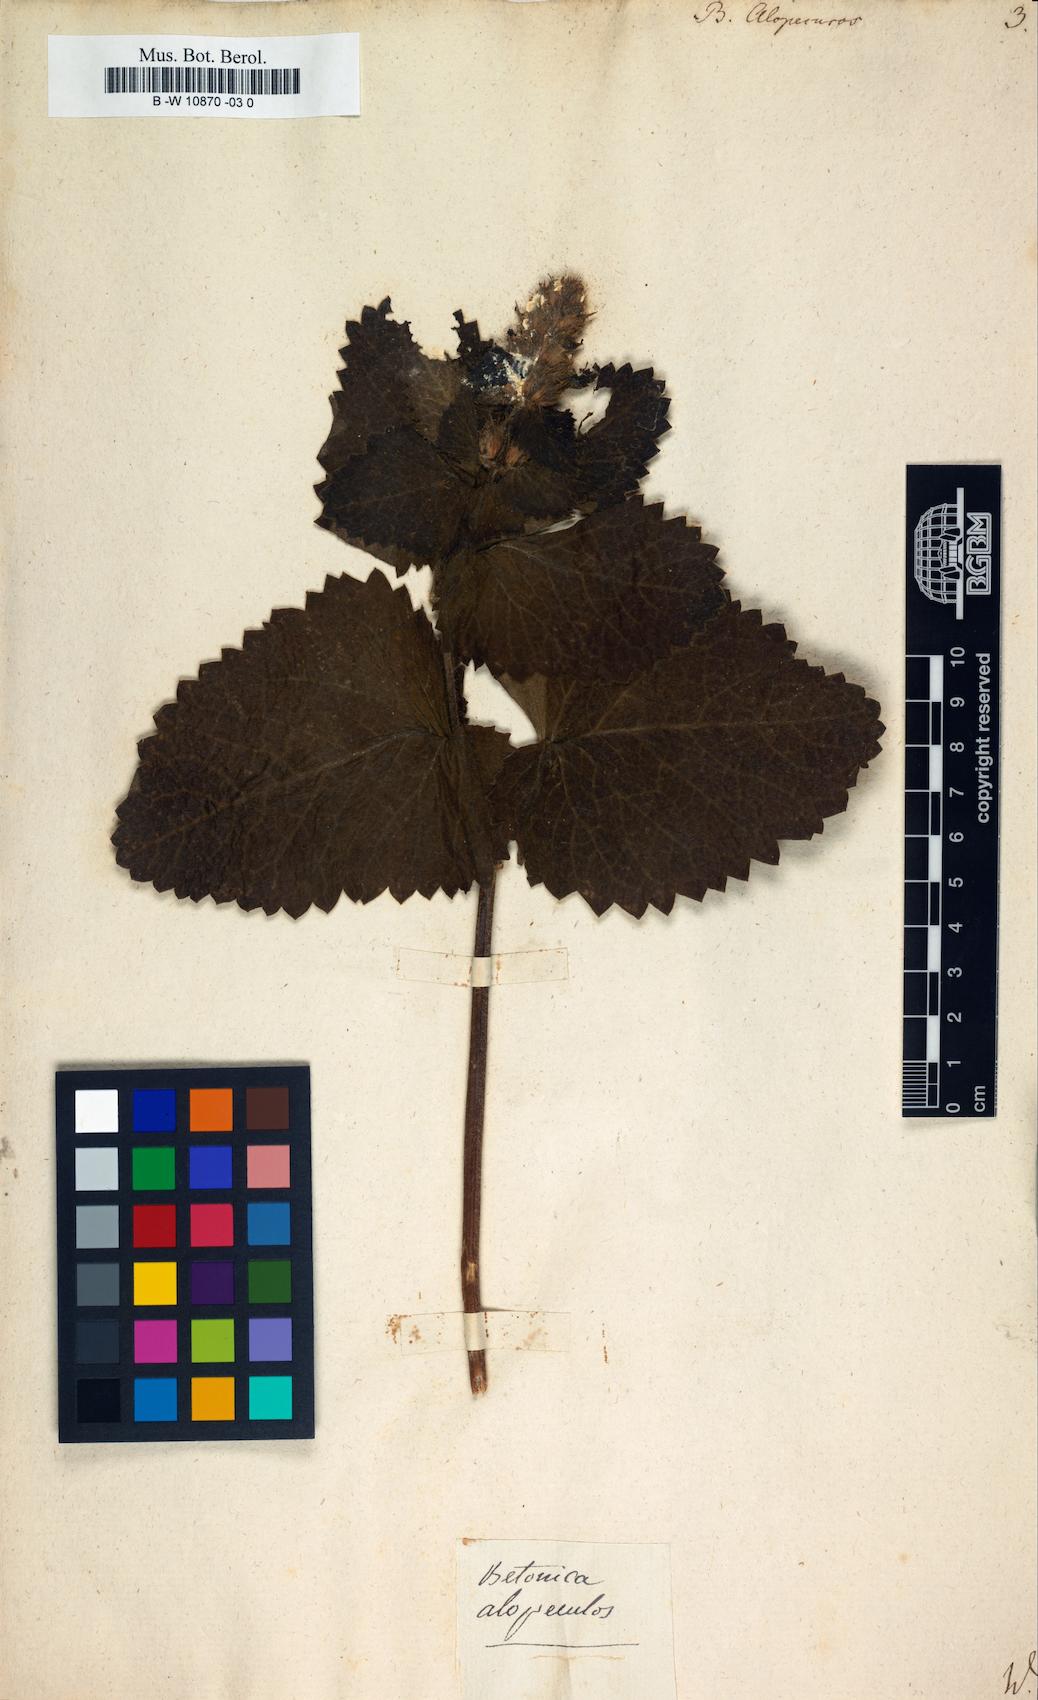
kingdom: Plantae
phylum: Tracheophyta
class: Magnoliopsida
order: Lamiales
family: Lamiaceae
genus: Betonica
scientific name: Betonica alopecuros
